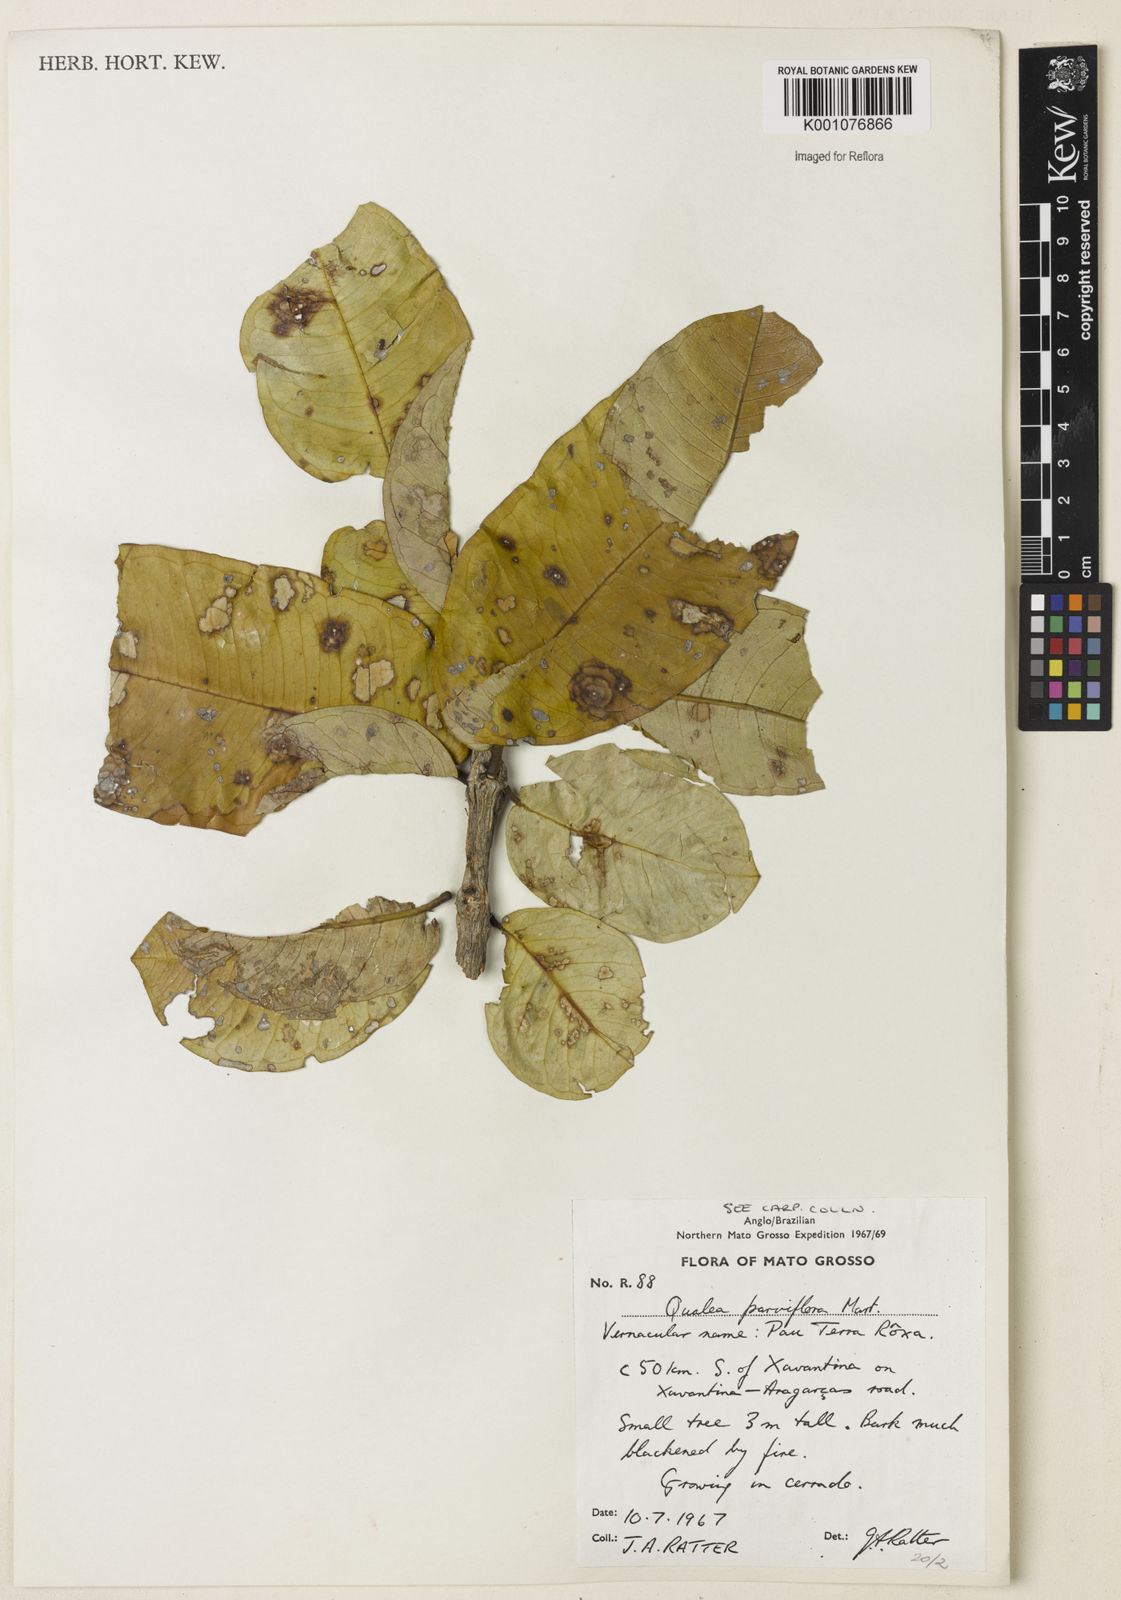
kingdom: Plantae
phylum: Tracheophyta
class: Magnoliopsida
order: Myrtales
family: Vochysiaceae
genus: Qualea
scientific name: Qualea parviflora
